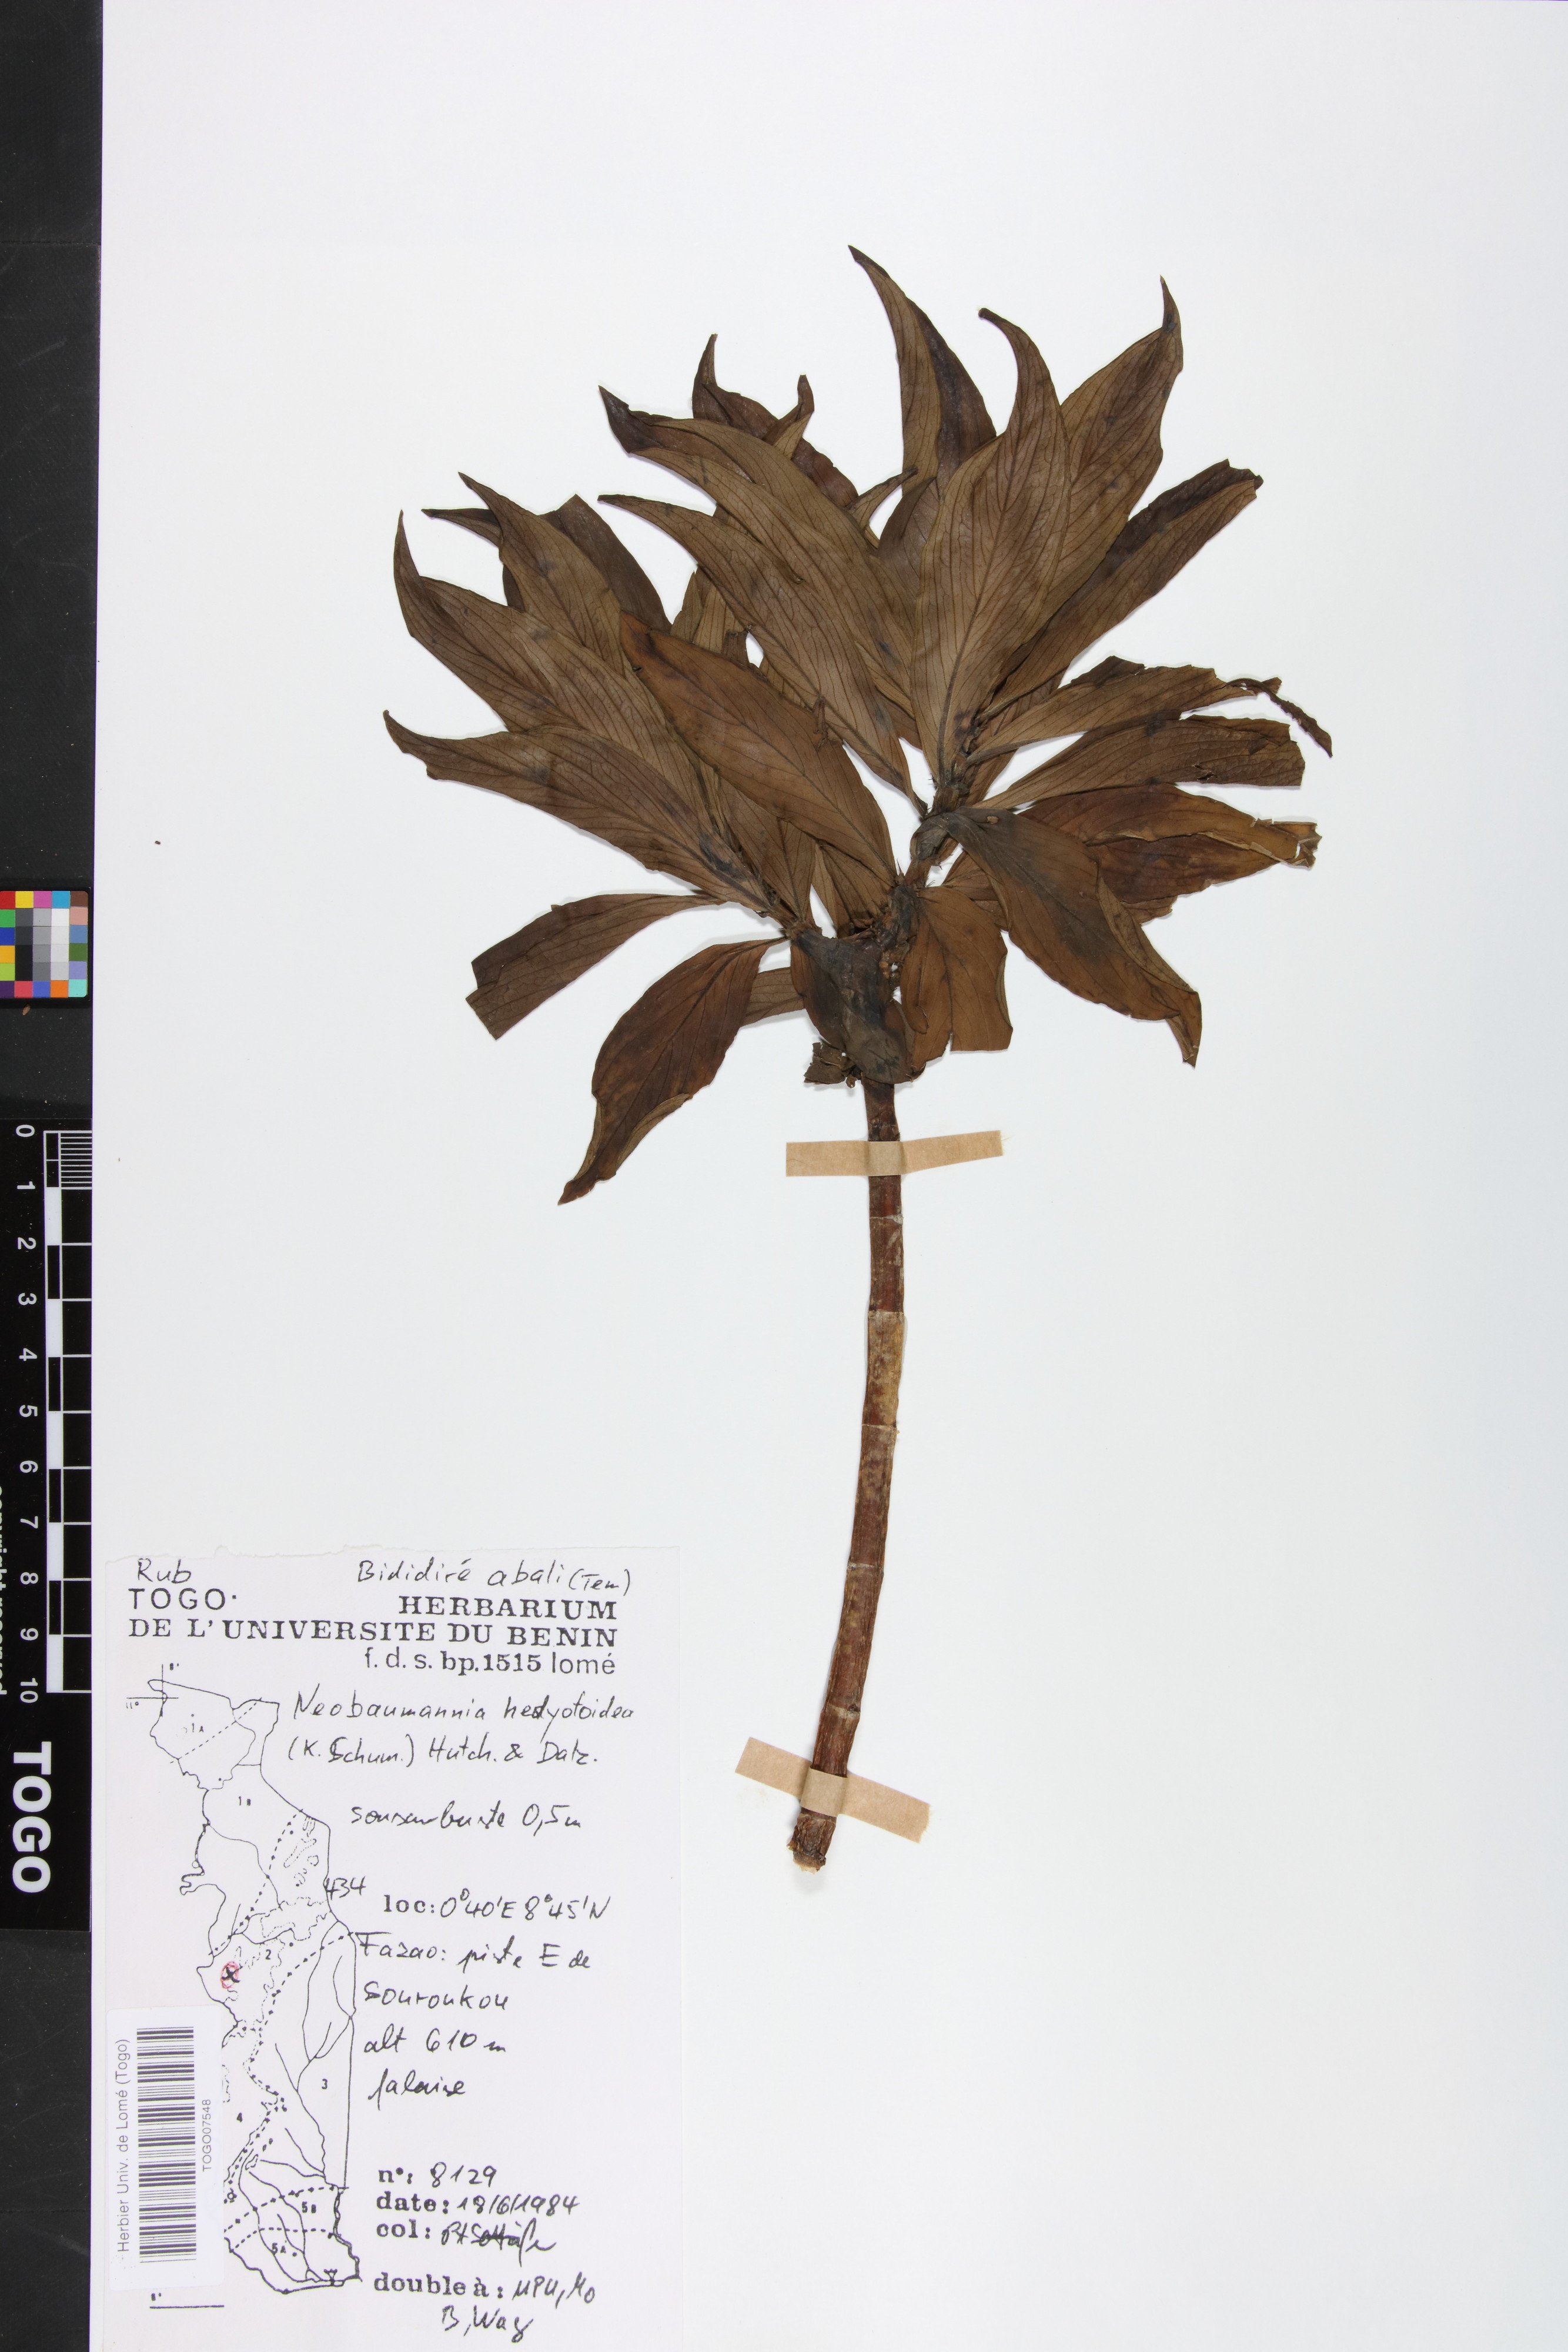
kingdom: Plantae
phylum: Tracheophyta
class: Magnoliopsida
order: Gentianales
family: Rubiaceae
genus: Knoxia
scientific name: Knoxia hedyotoidea
